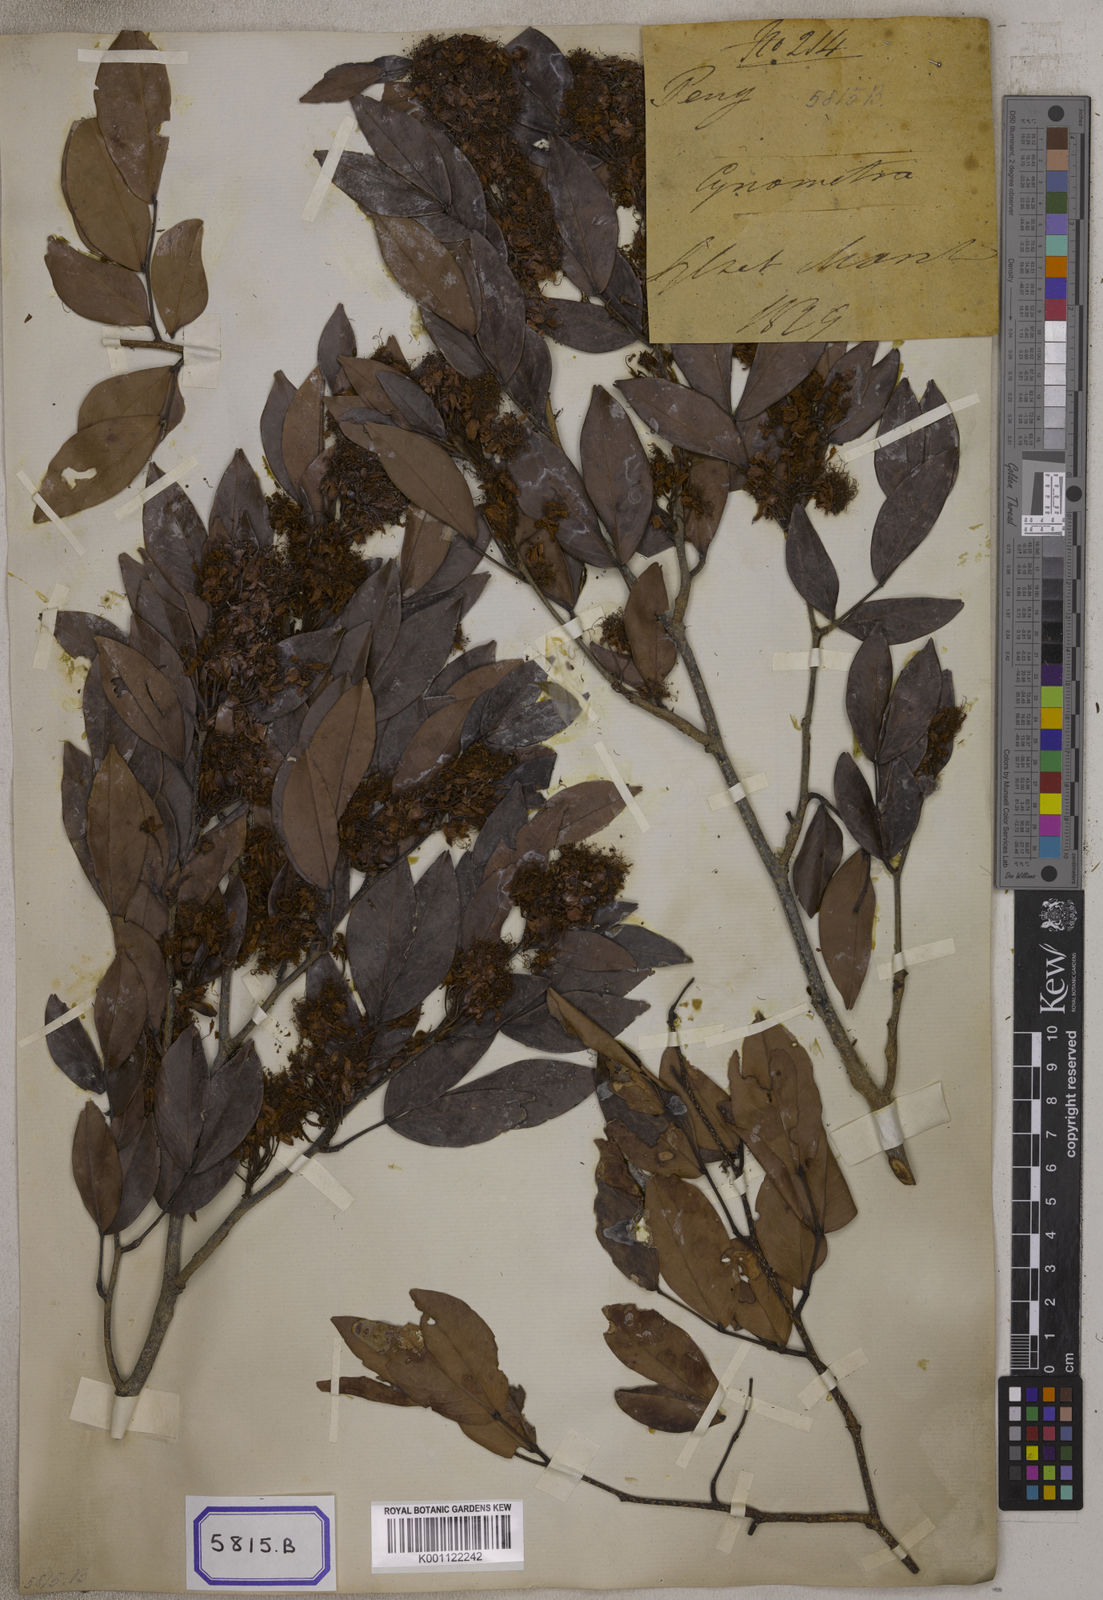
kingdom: Plantae
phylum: Tracheophyta
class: Magnoliopsida
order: Fabales
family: Fabaceae
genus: Cynometra
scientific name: Cynometra polyandra
